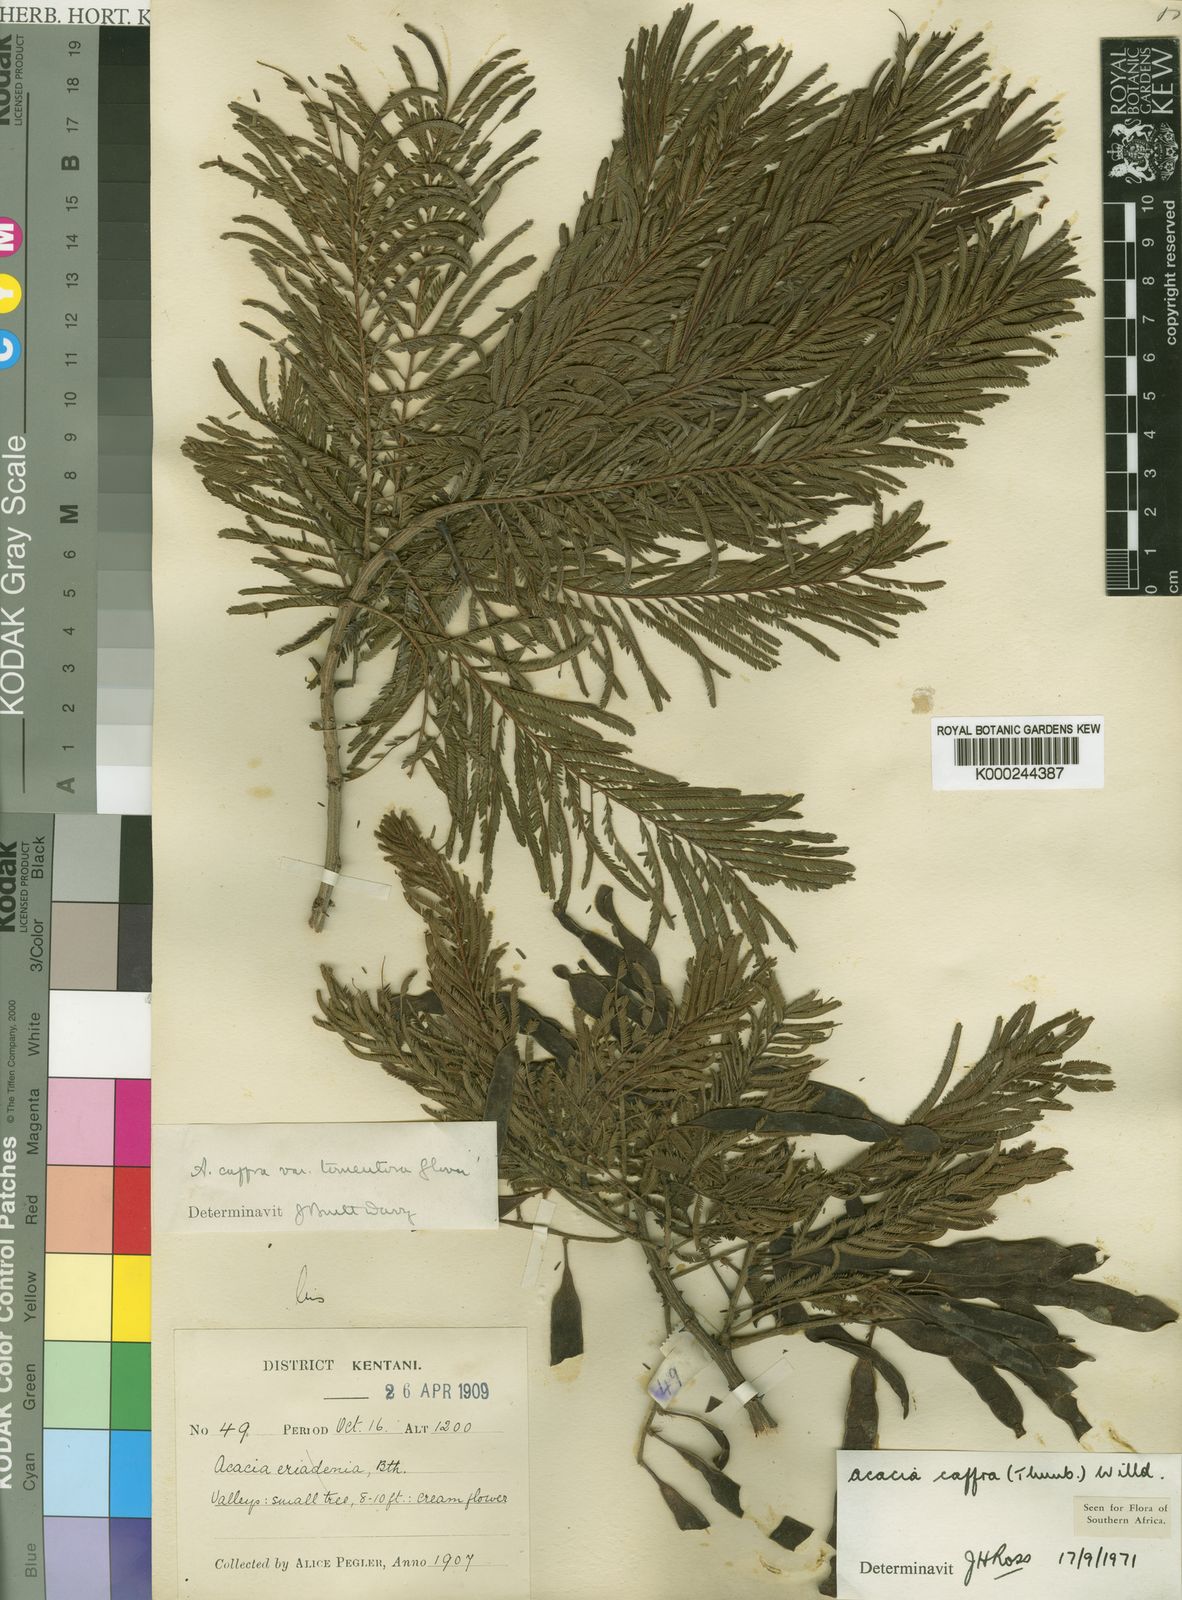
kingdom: Plantae
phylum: Tracheophyta
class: Magnoliopsida
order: Fabales
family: Fabaceae
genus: Senegalia
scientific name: Senegalia caffra
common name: Cat thorn
